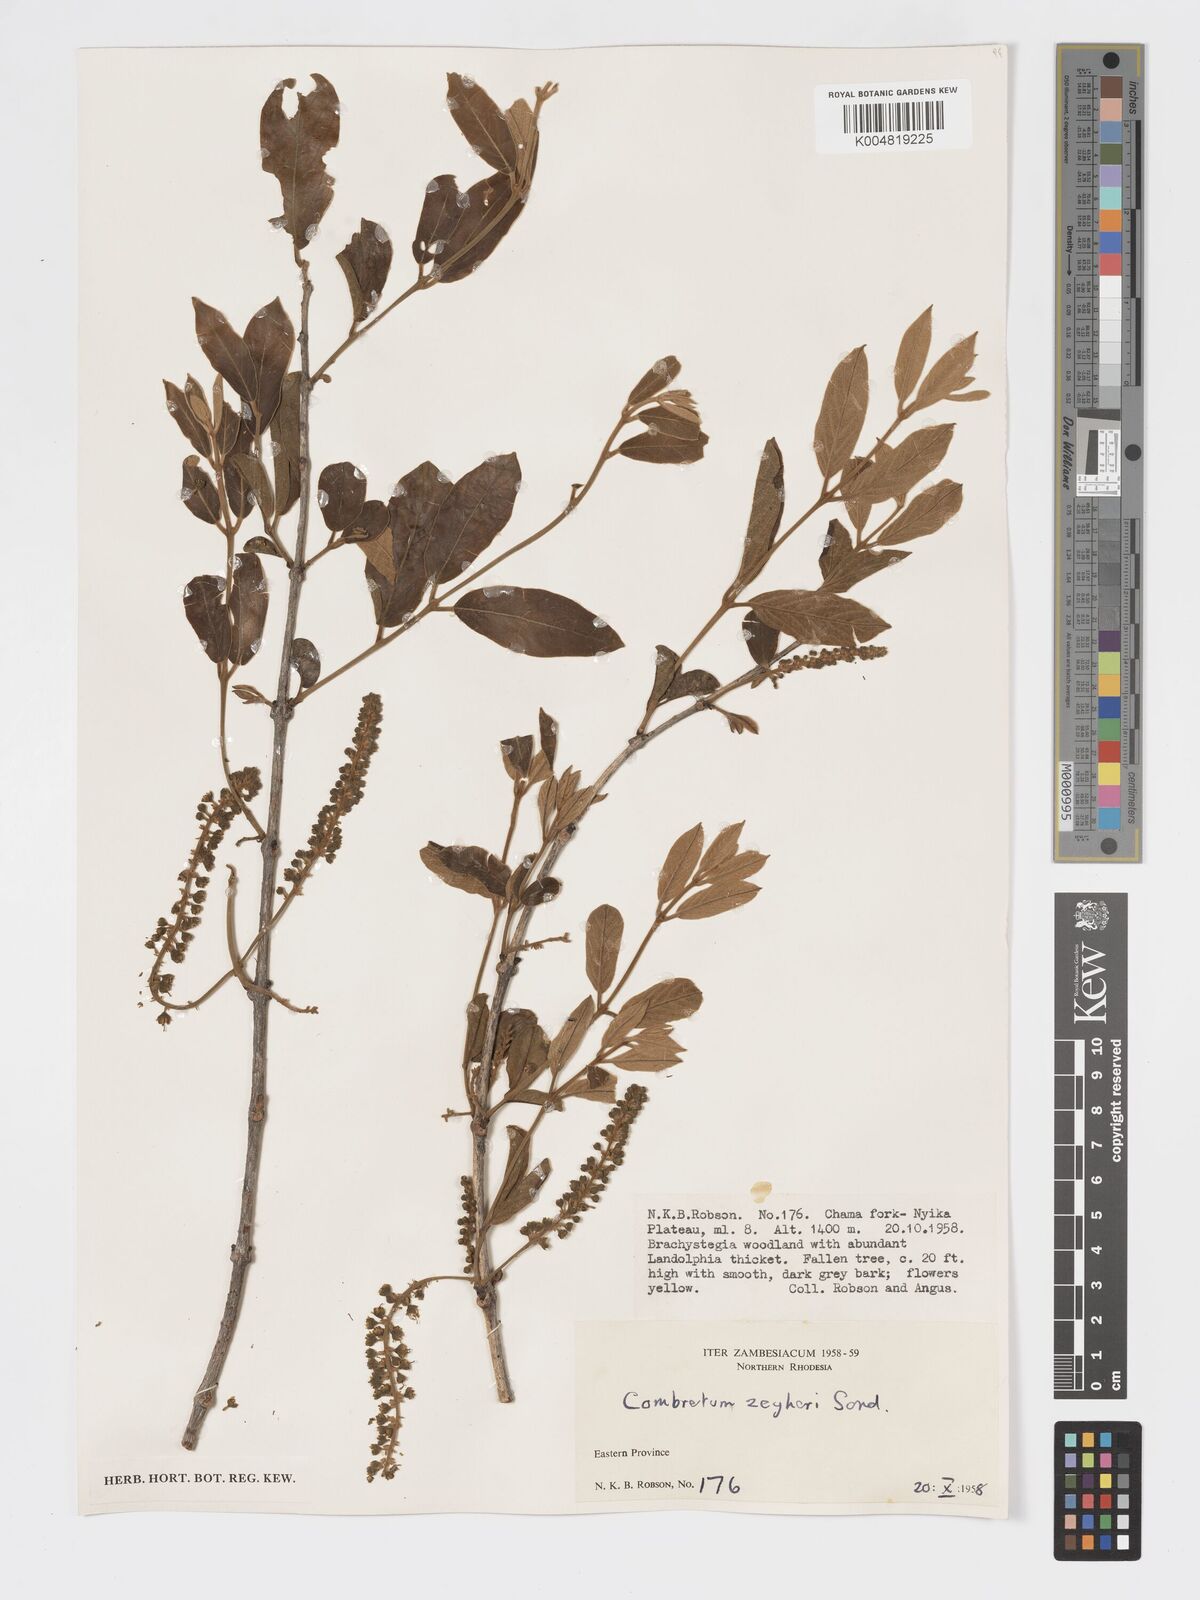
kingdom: Plantae
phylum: Tracheophyta
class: Magnoliopsida
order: Myrtales
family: Combretaceae
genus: Combretum
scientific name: Combretum zeyheri
